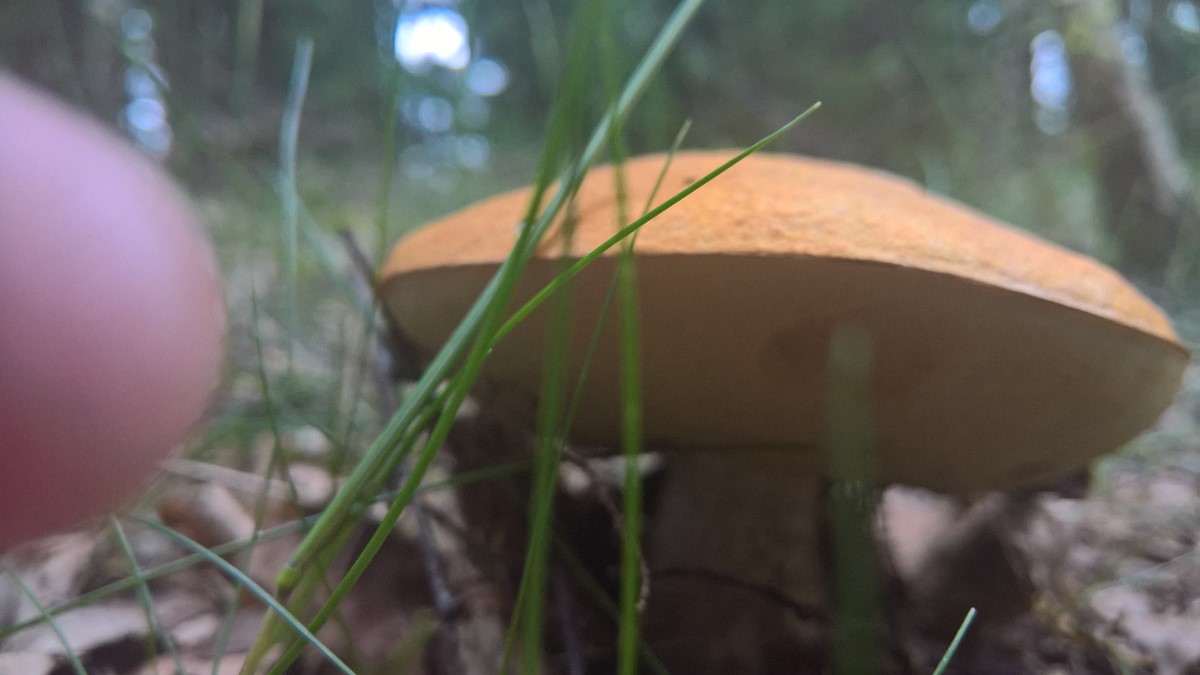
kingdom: Fungi
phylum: Basidiomycota
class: Agaricomycetes
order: Boletales
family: Boletaceae
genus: Leccinum
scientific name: Leccinum versipelle
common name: orange skælrørhat
